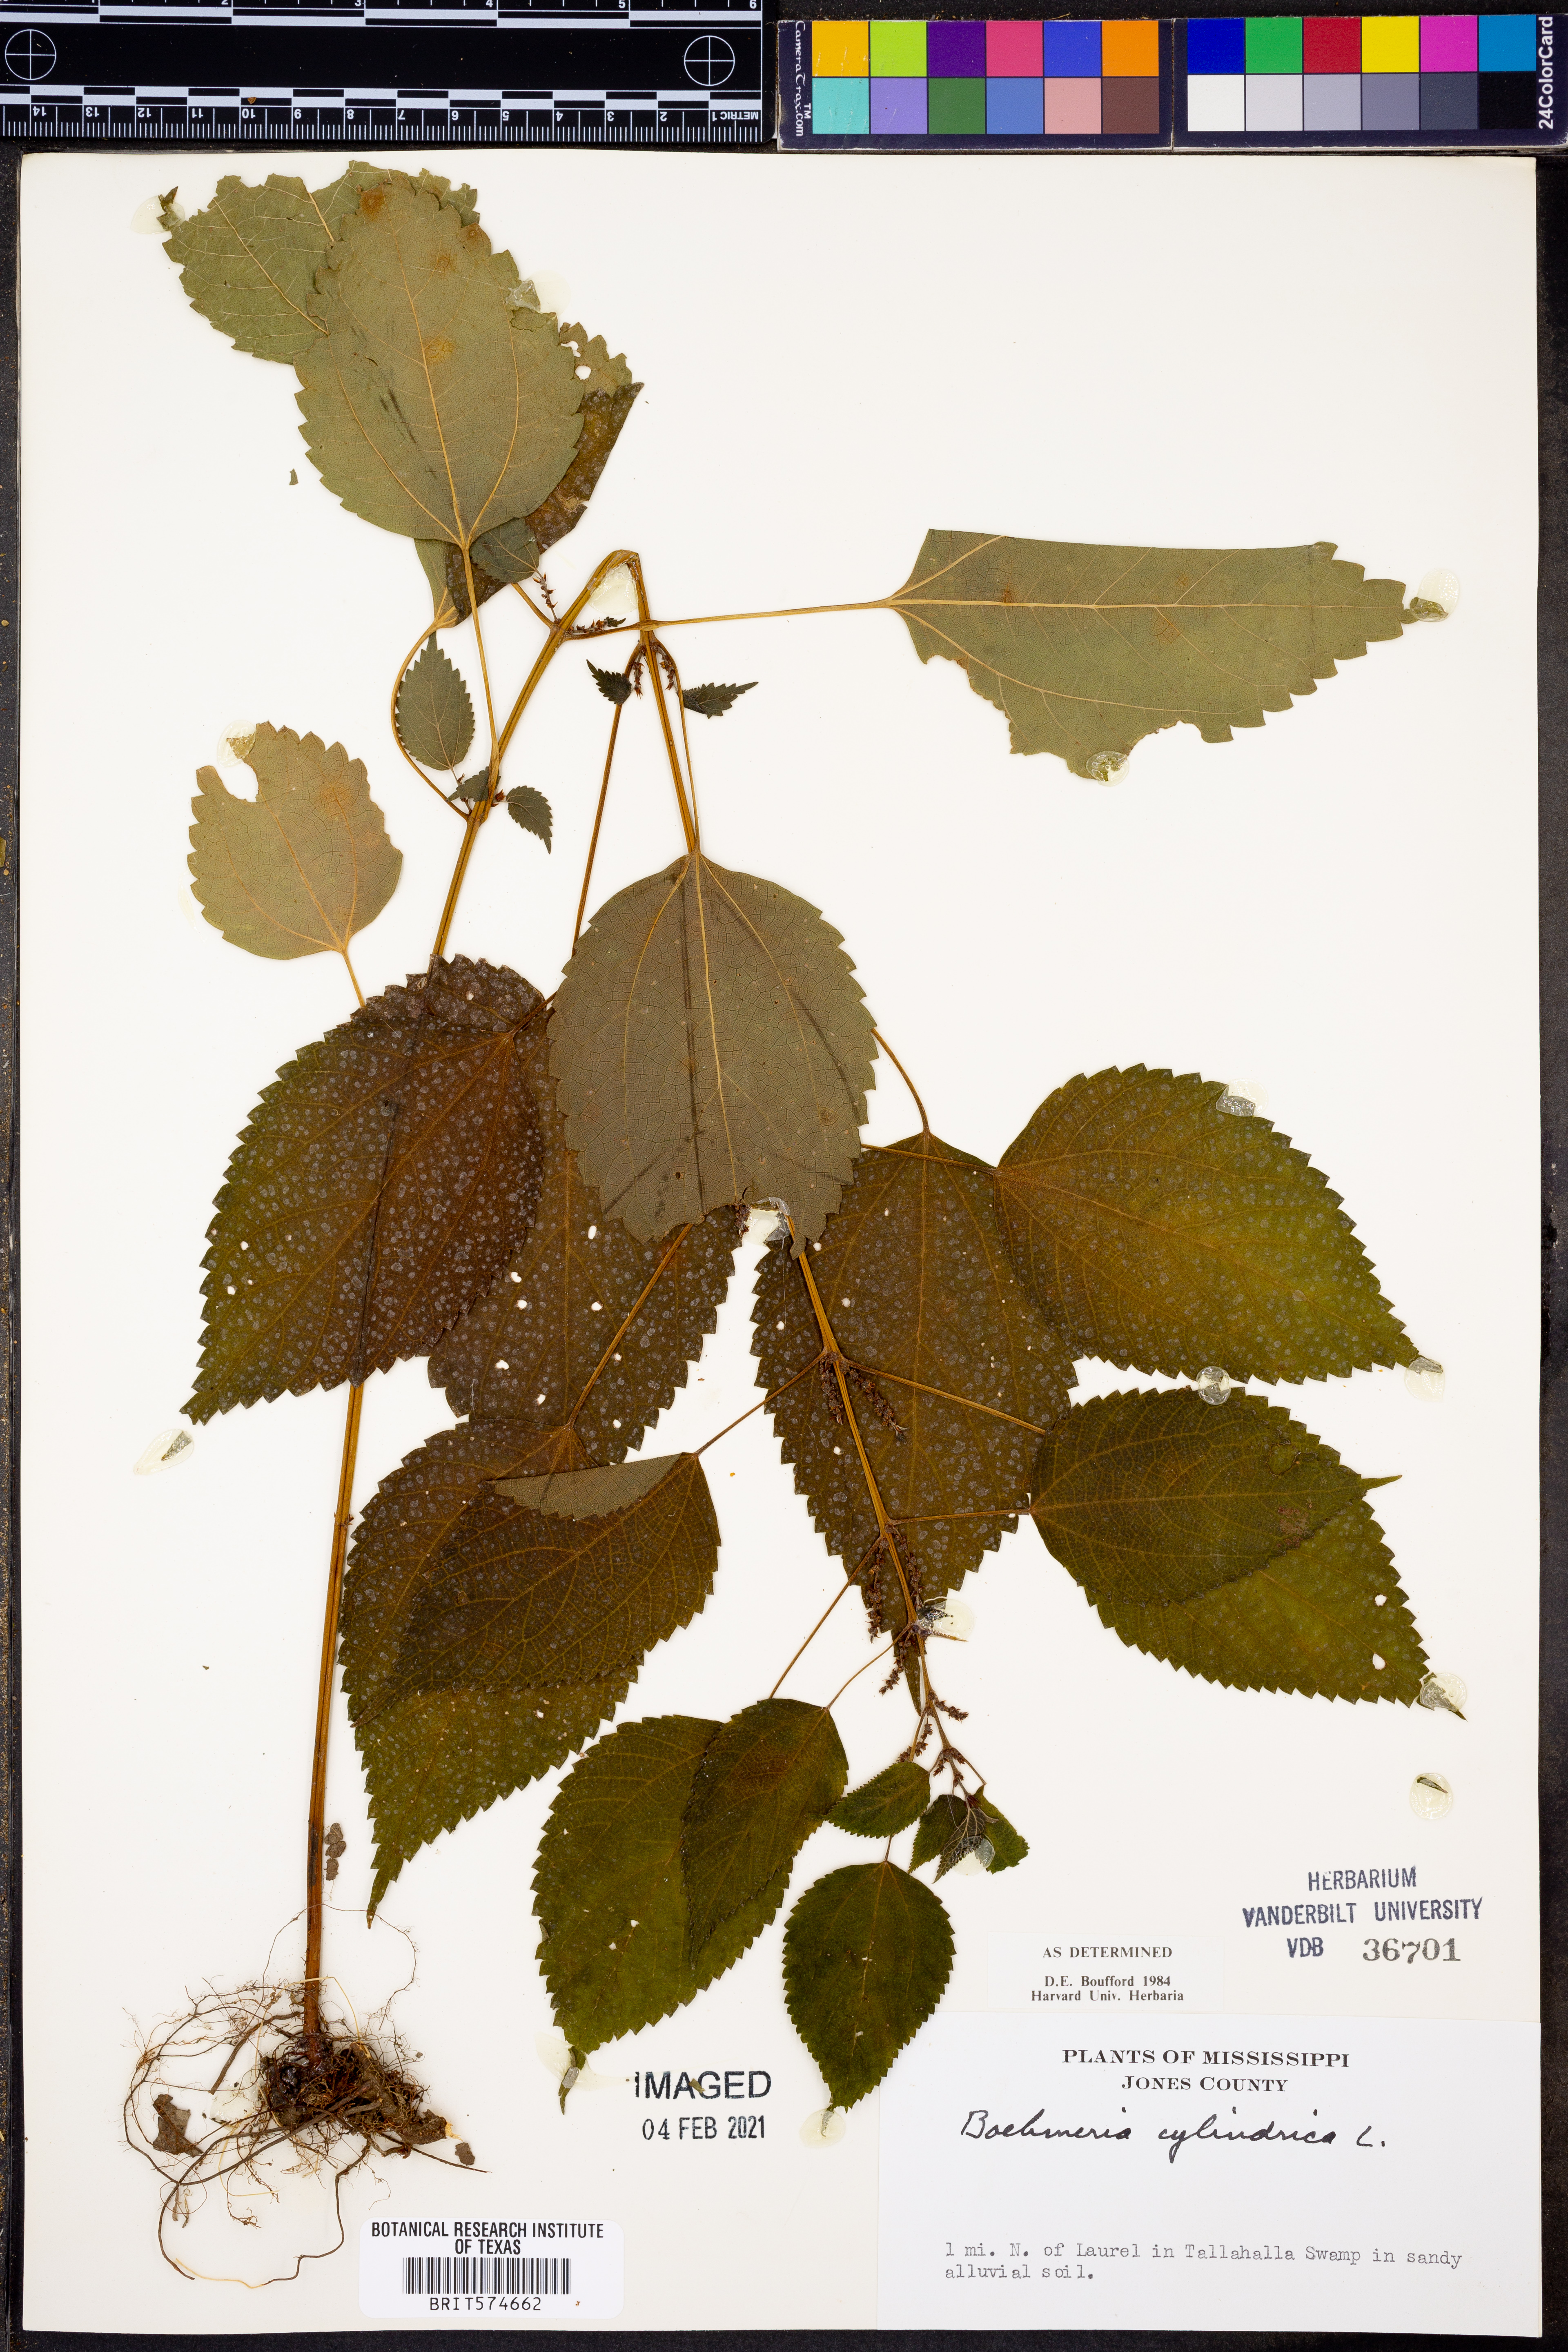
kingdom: Plantae
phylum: Tracheophyta
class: Magnoliopsida
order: Rosales
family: Urticaceae
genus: Boehmeria
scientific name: Boehmeria cylindrica
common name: Bog-hemp
